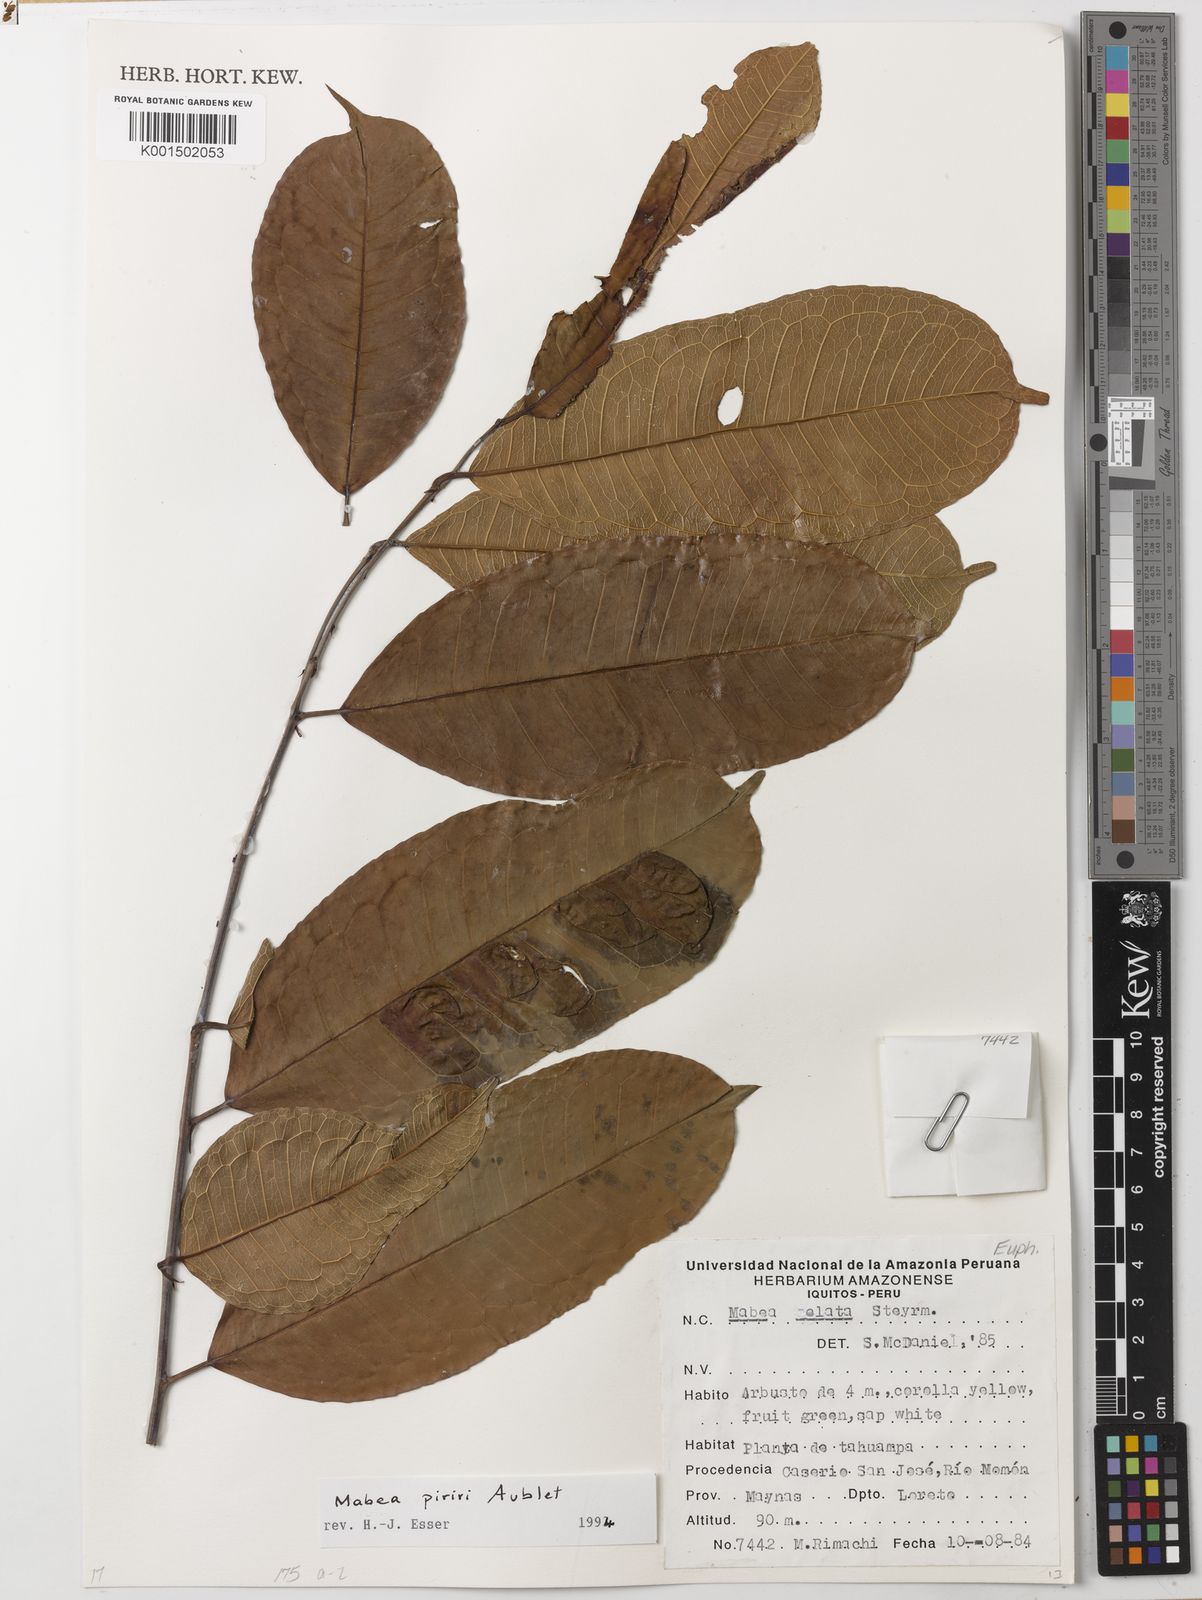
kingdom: Plantae
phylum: Tracheophyta
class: Magnoliopsida
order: Malpighiales
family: Euphorbiaceae
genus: Mabea
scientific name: Mabea piriri
